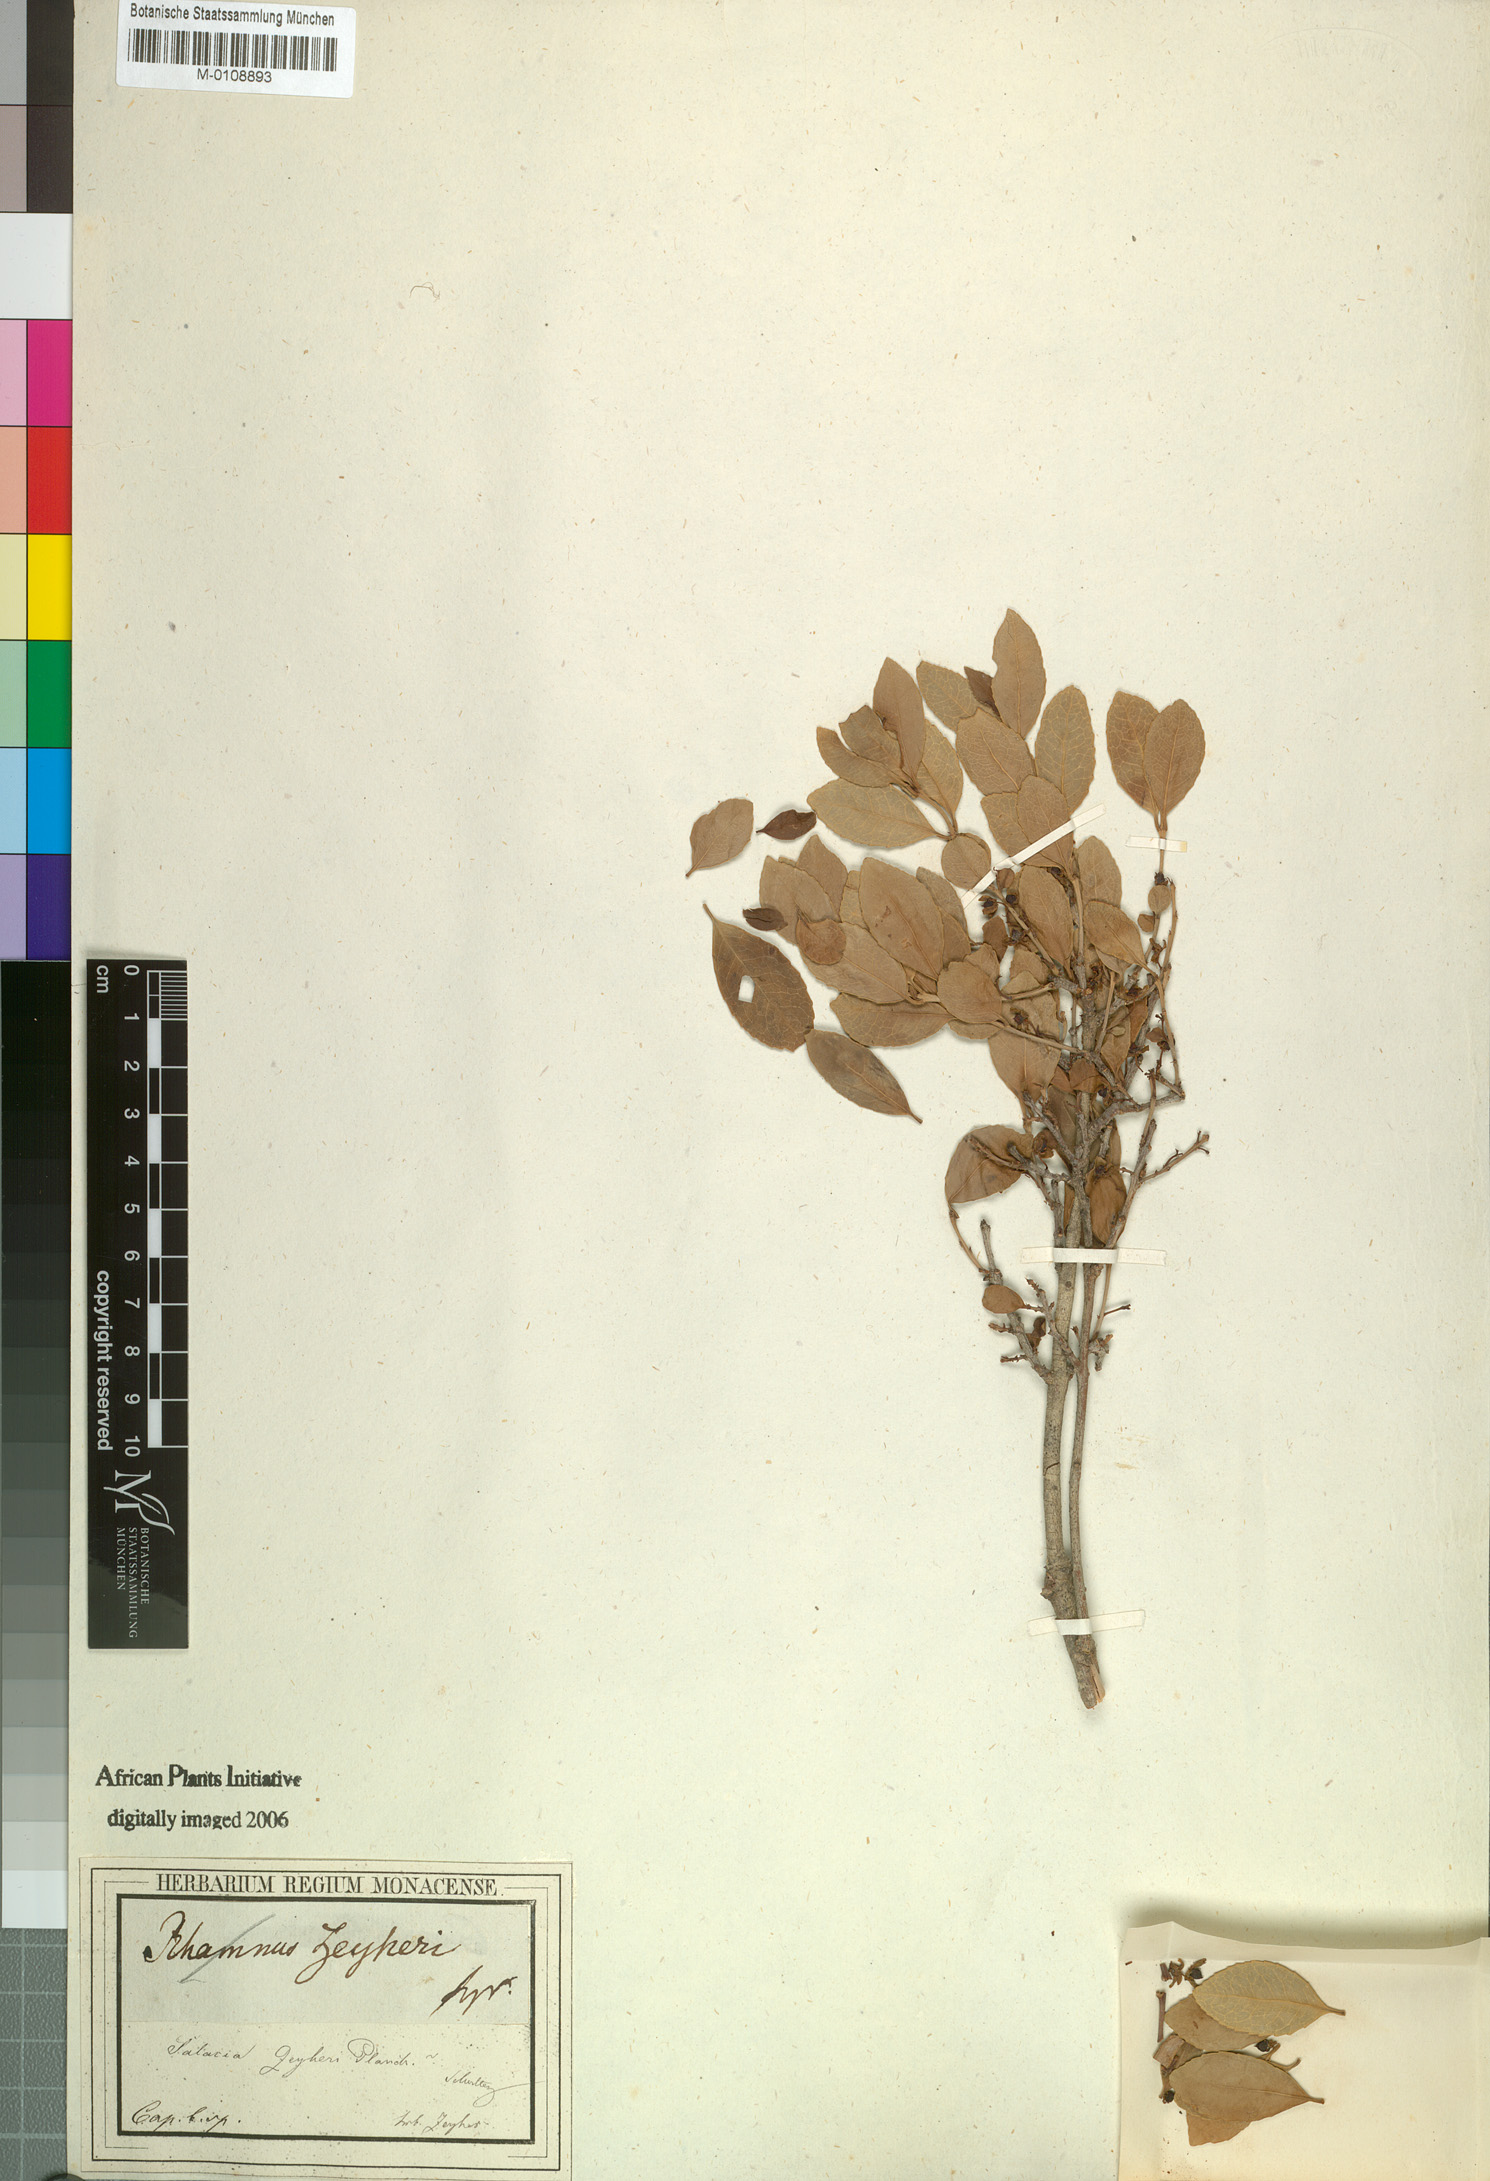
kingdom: Plantae
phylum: Tracheophyta
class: Magnoliopsida
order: Celastrales
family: Celastraceae
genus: Elaeodendron
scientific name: Elaeodendron zeyheri
